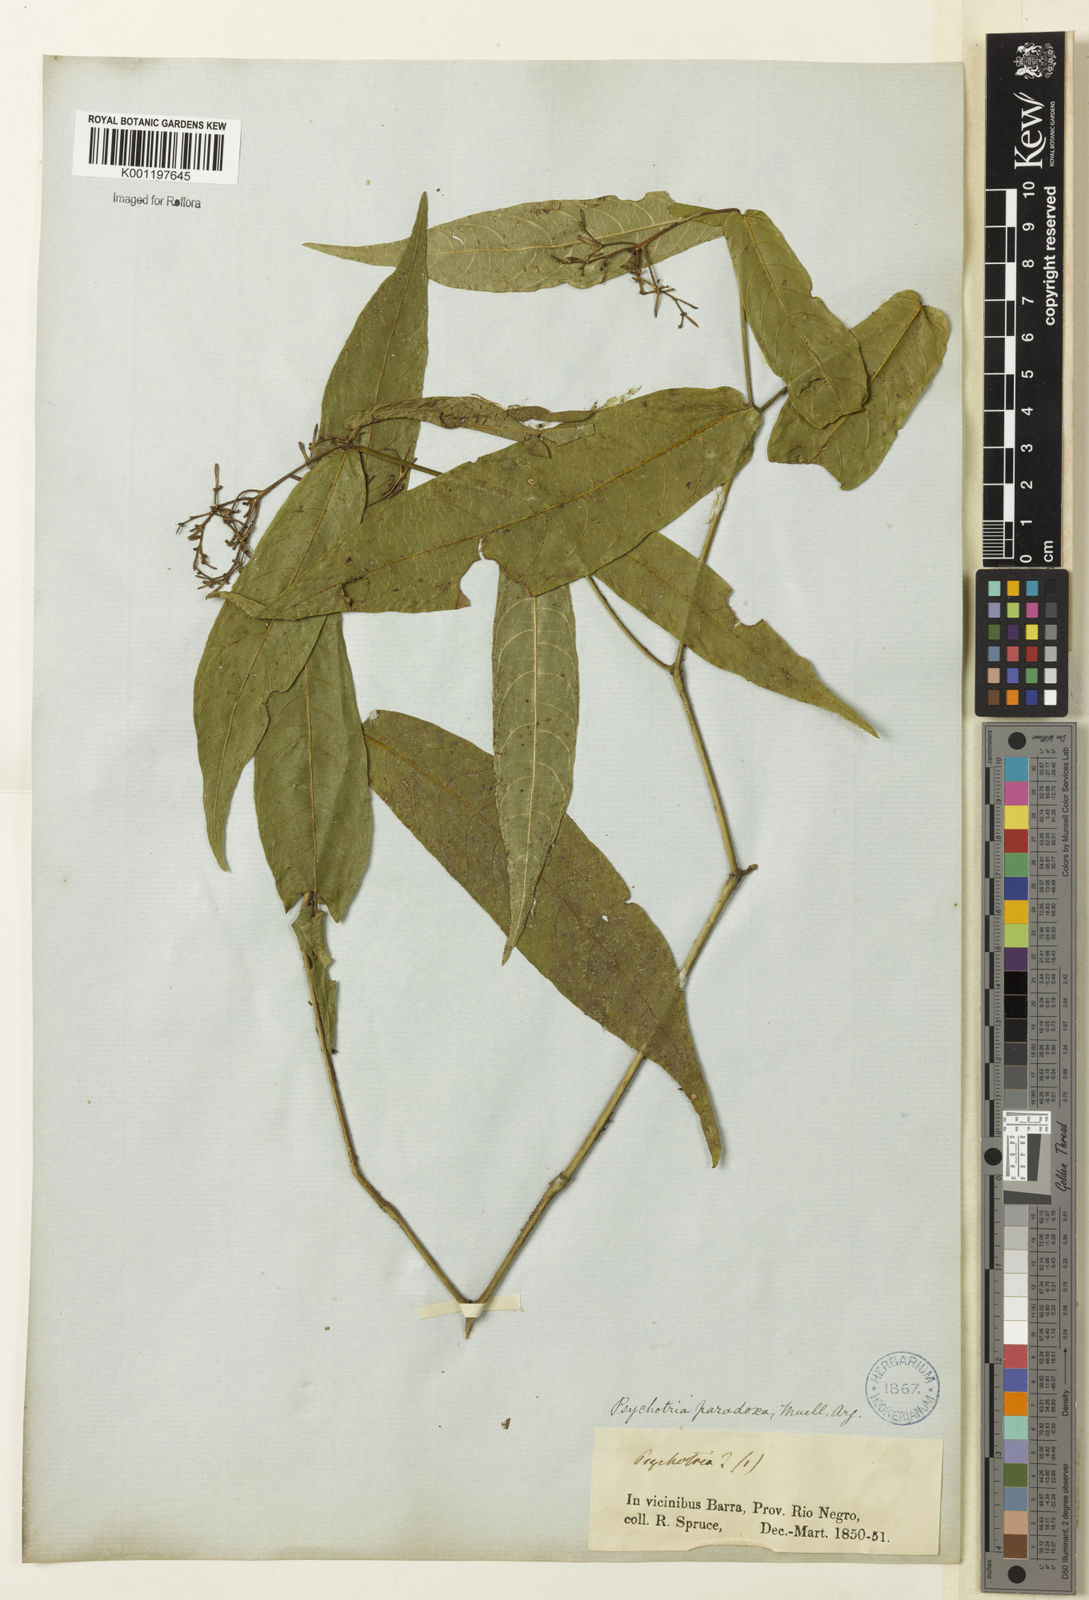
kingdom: Plantae
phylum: Tracheophyta
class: Magnoliopsida
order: Gentianales
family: Rubiaceae
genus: Psychotria
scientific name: Psychotria
